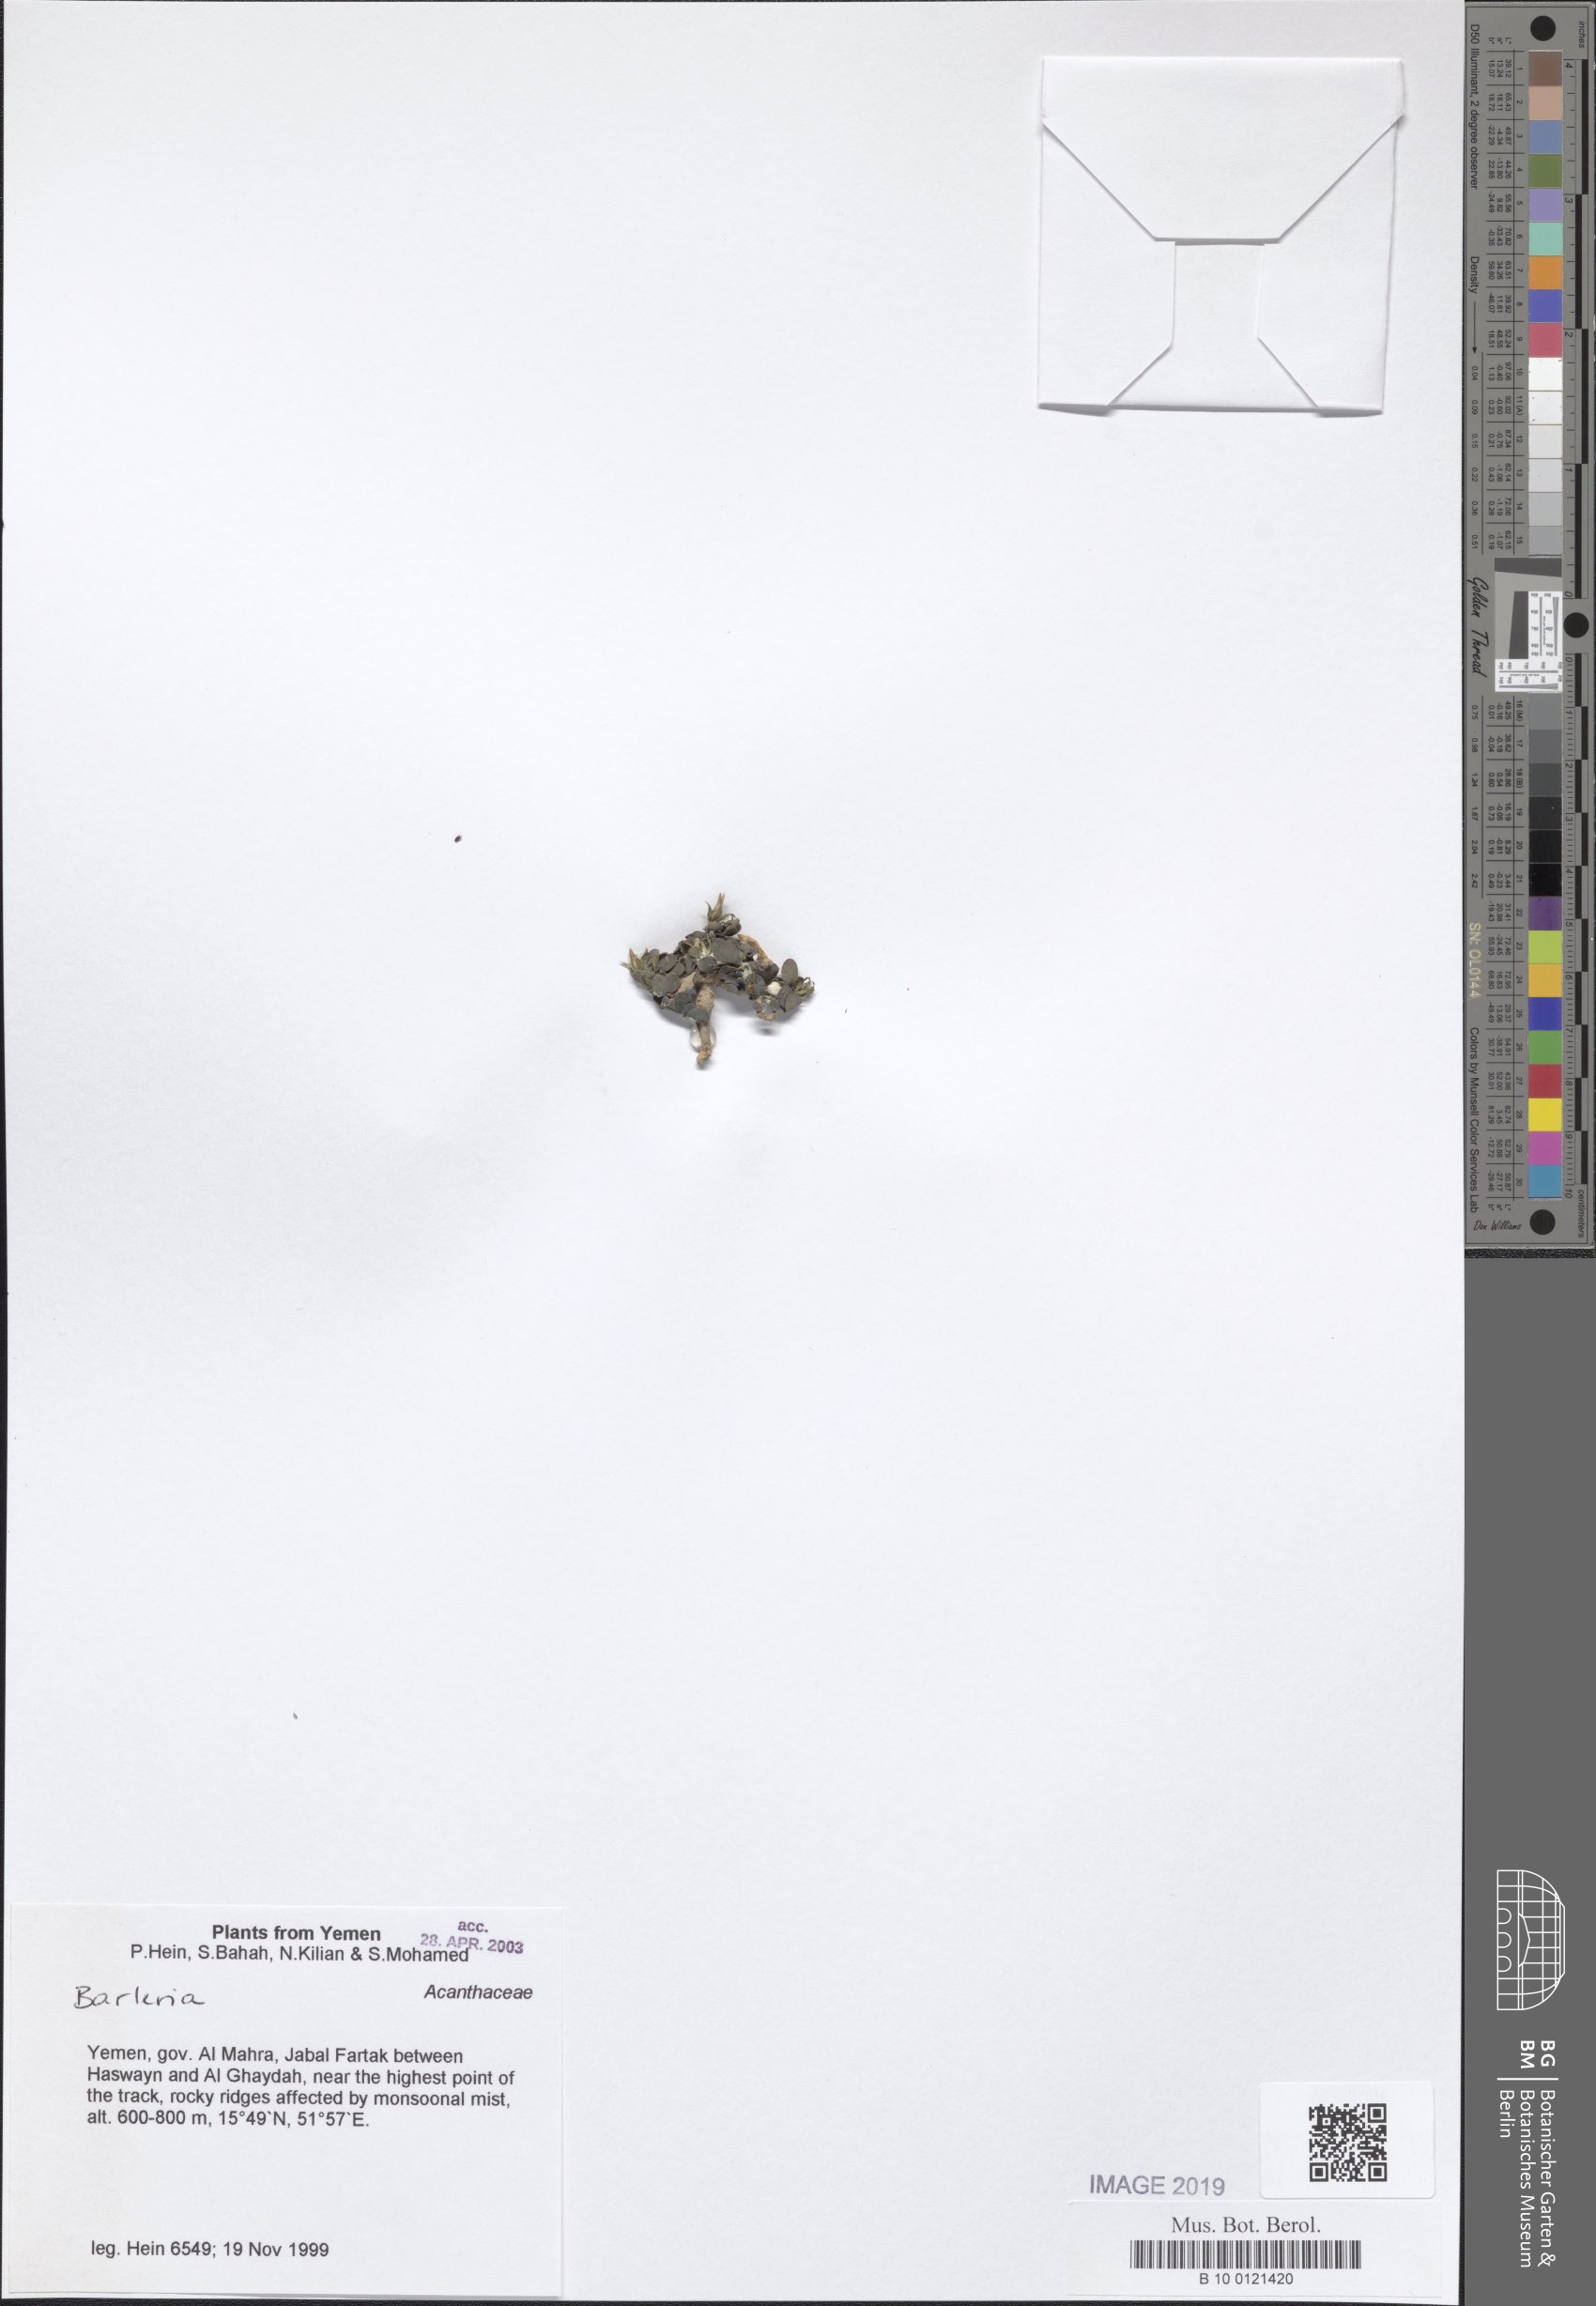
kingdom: Plantae
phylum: Tracheophyta
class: Magnoliopsida
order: Lamiales
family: Acanthaceae
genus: Barleria
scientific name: Barleria
